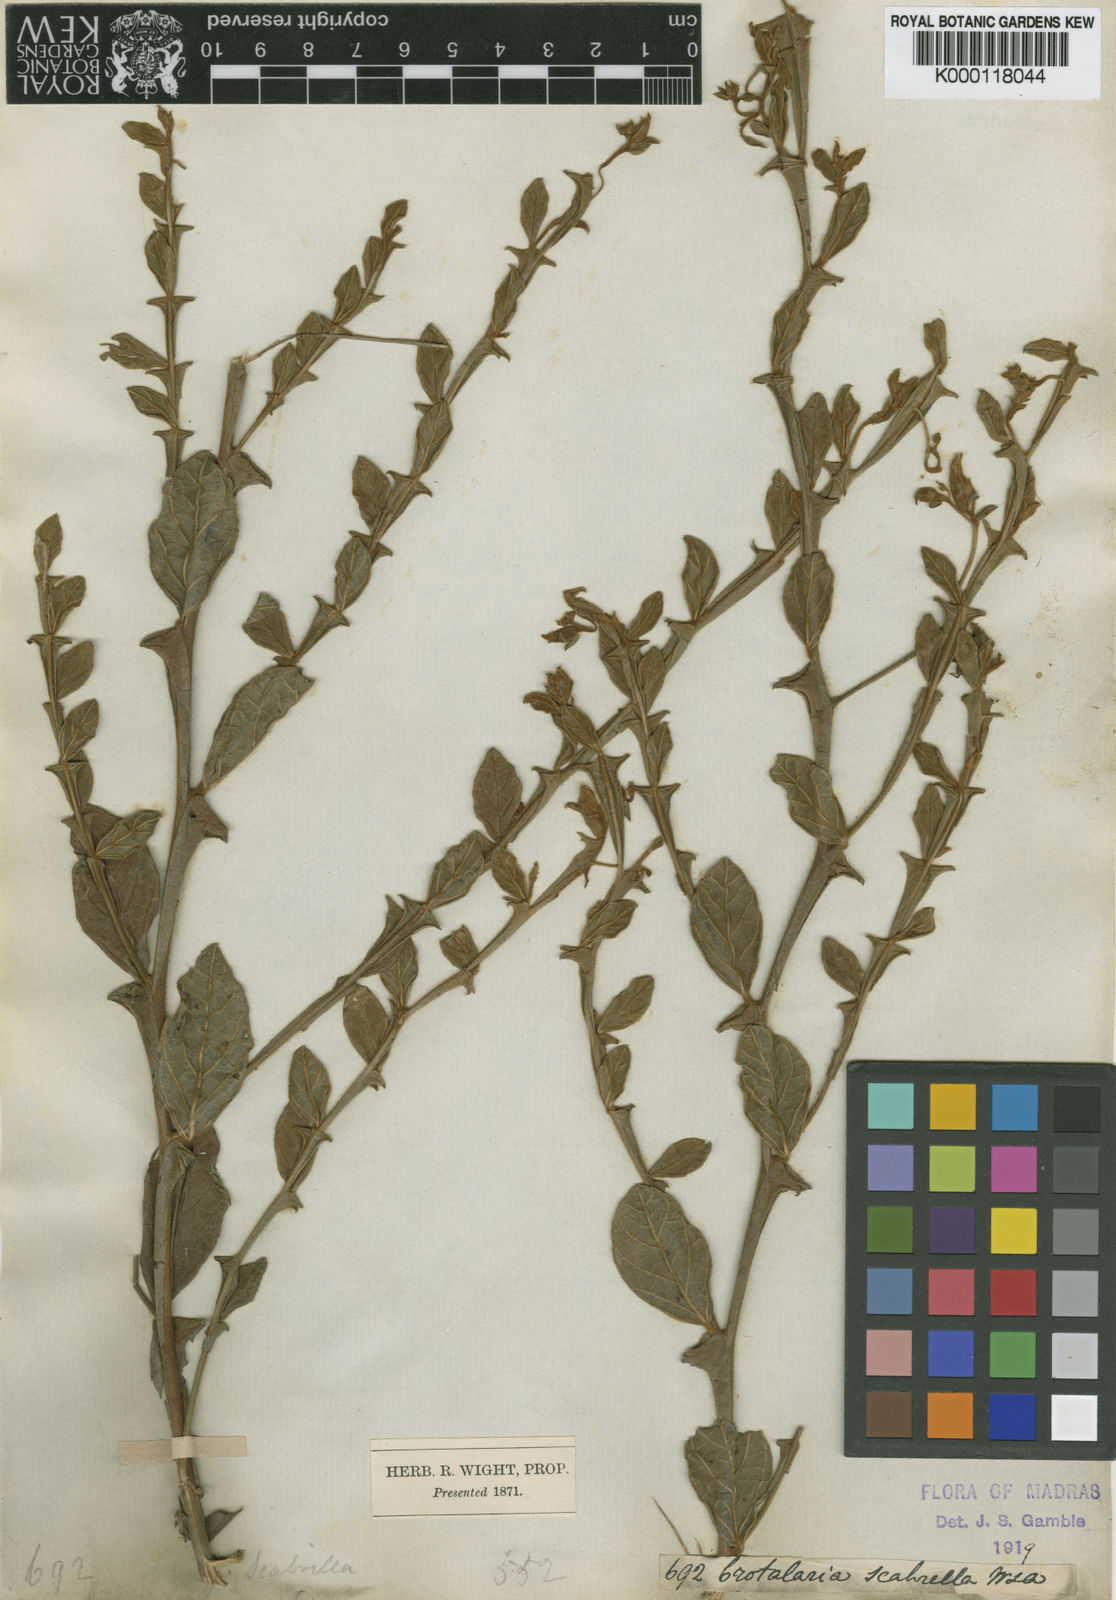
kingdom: Plantae
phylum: Tracheophyta
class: Magnoliopsida
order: Fabales
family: Fabaceae
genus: Crotalaria
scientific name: Crotalaria scabrella
